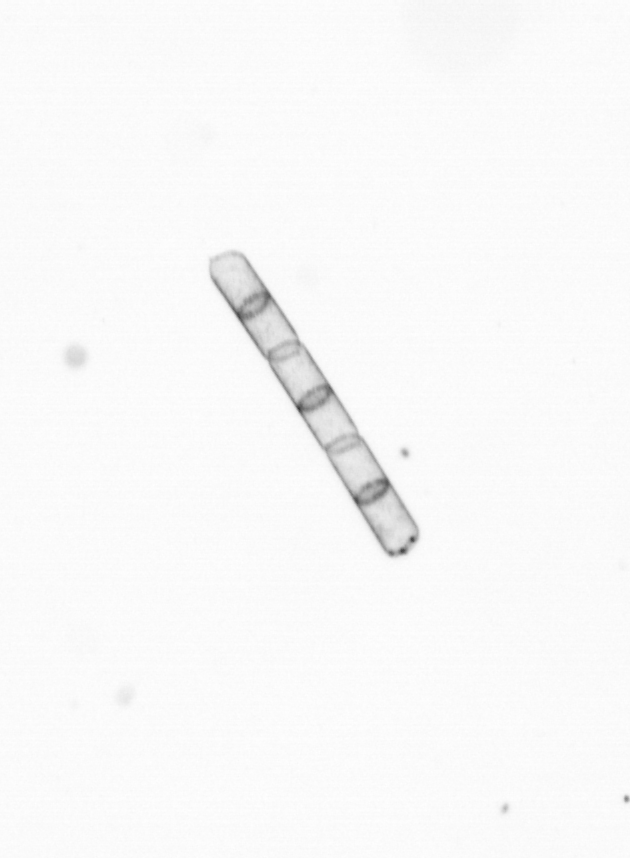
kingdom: Chromista
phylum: Ochrophyta
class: Bacillariophyceae
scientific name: Bacillariophyceae
